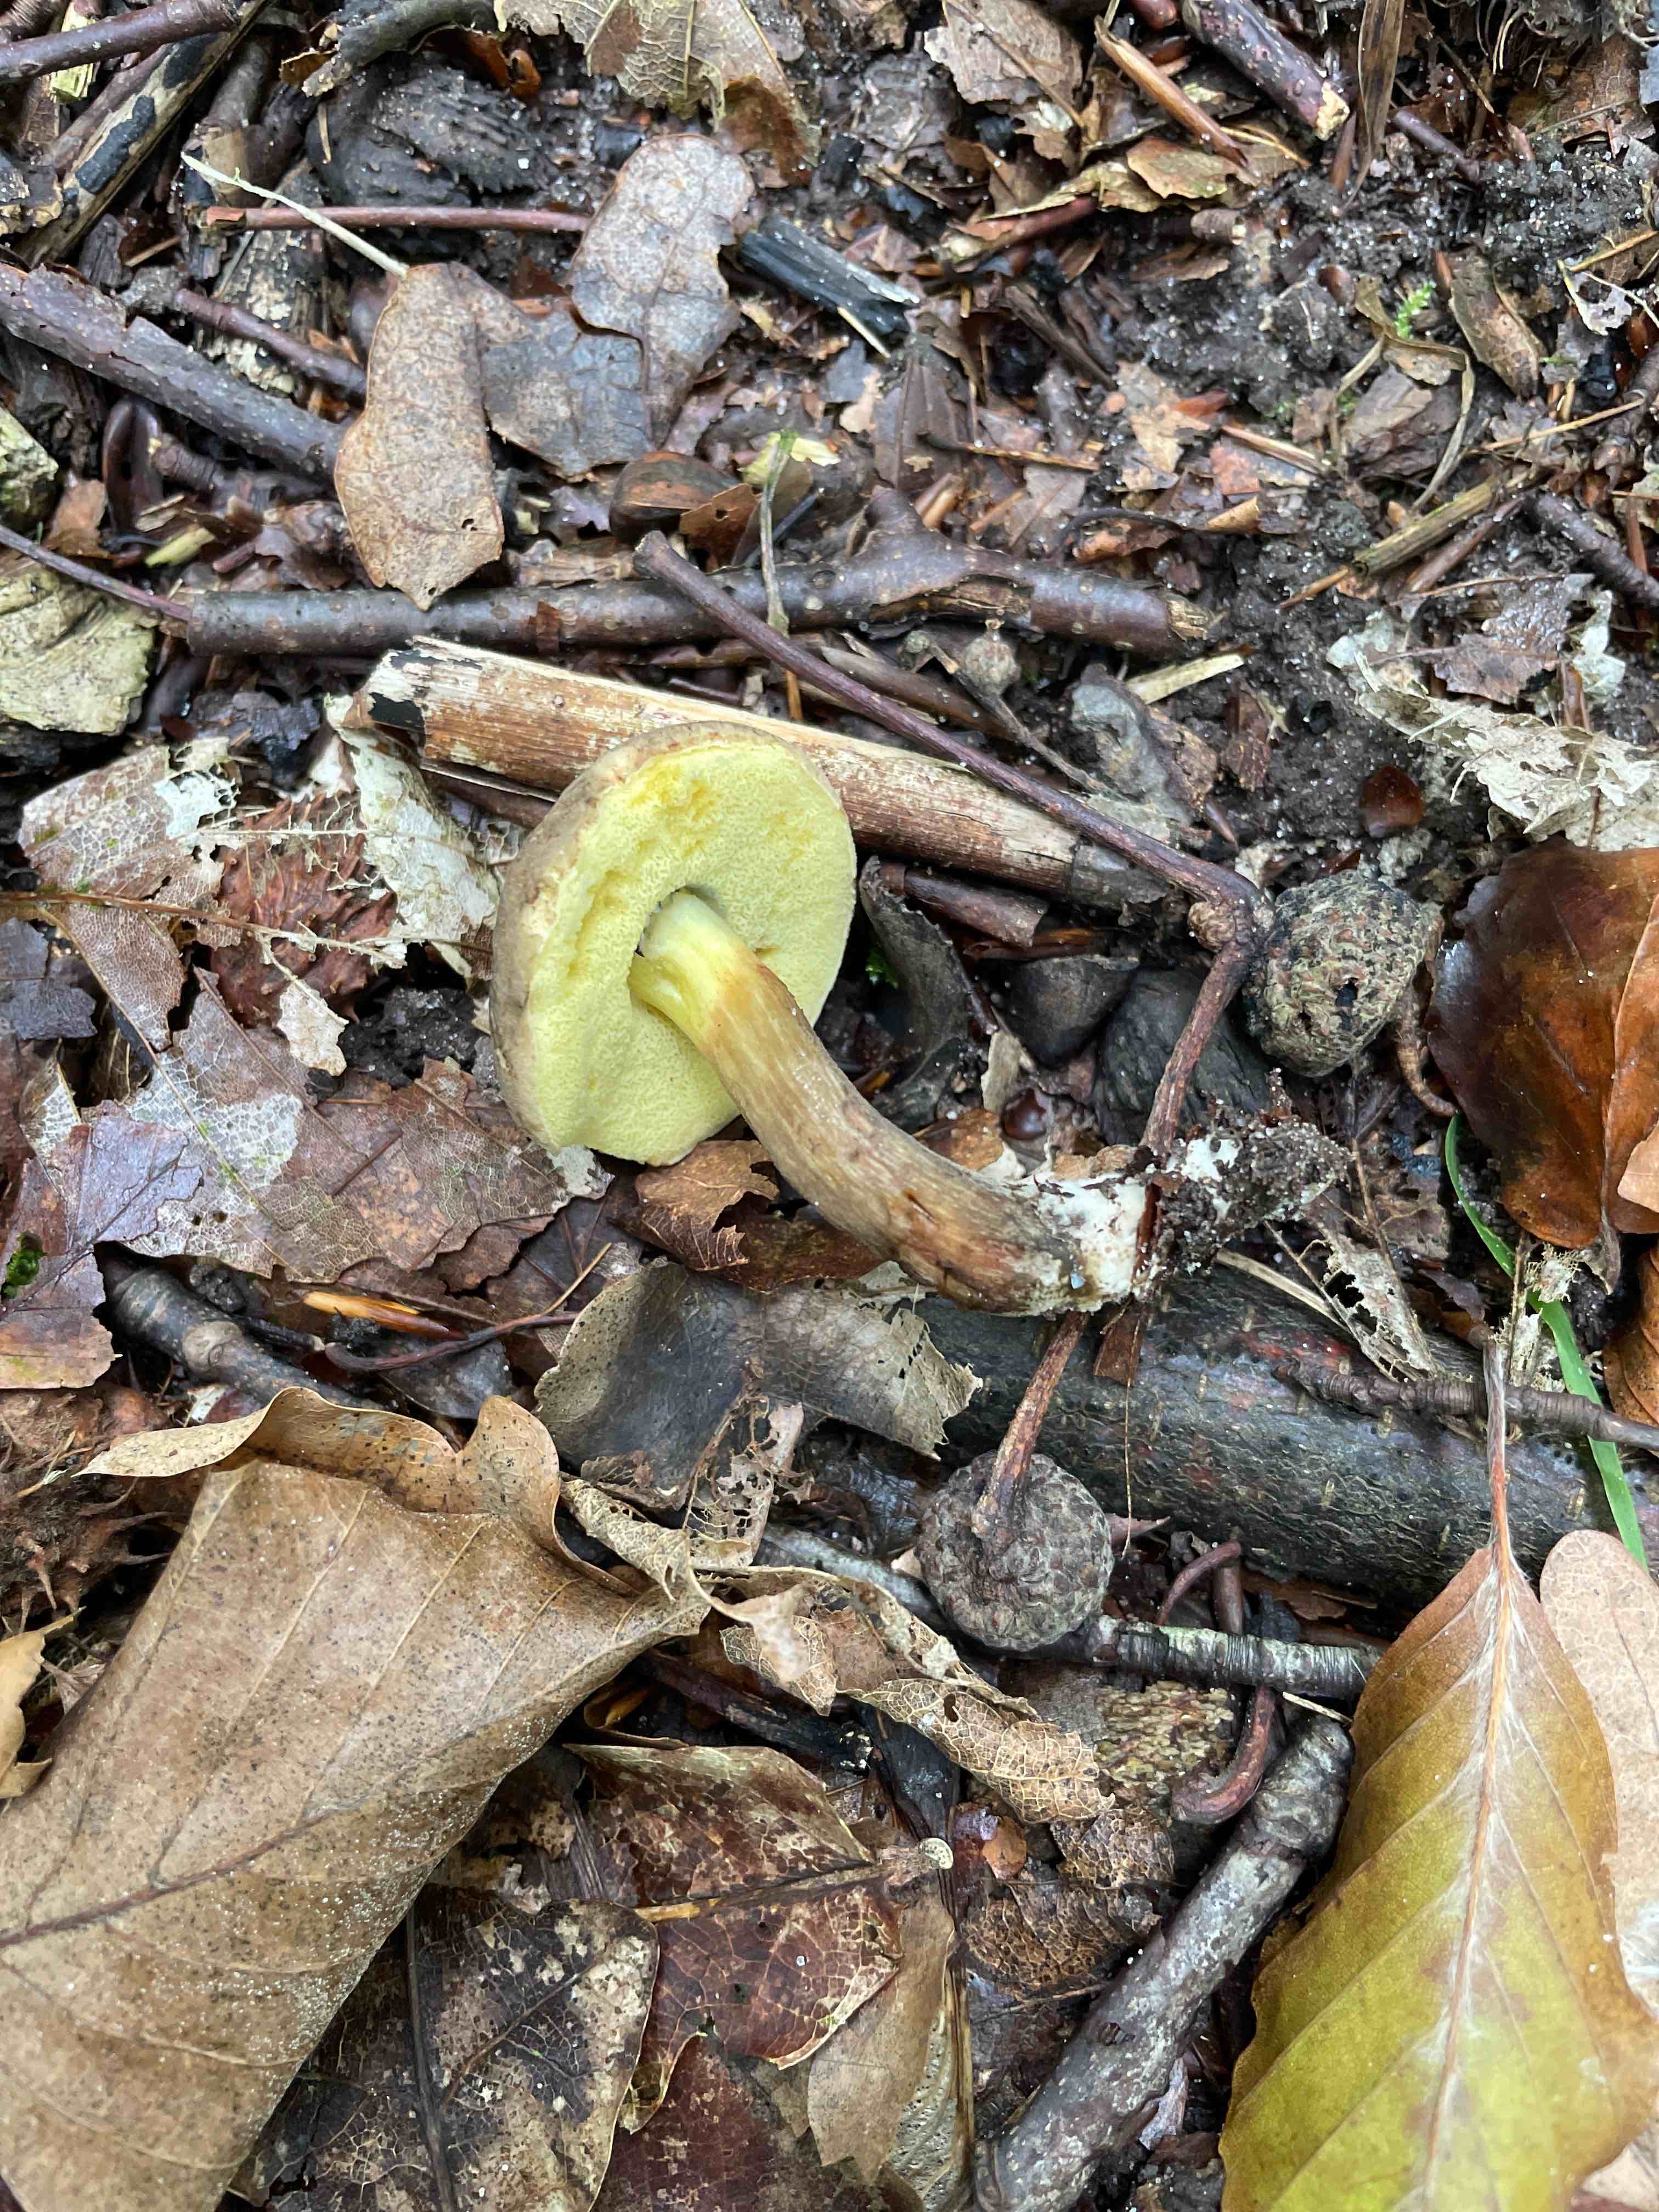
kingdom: Fungi
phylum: Basidiomycota
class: Agaricomycetes
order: Boletales
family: Boletaceae
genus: Xerocomellus
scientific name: Xerocomellus porosporus
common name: hvidsprukken rørhat
